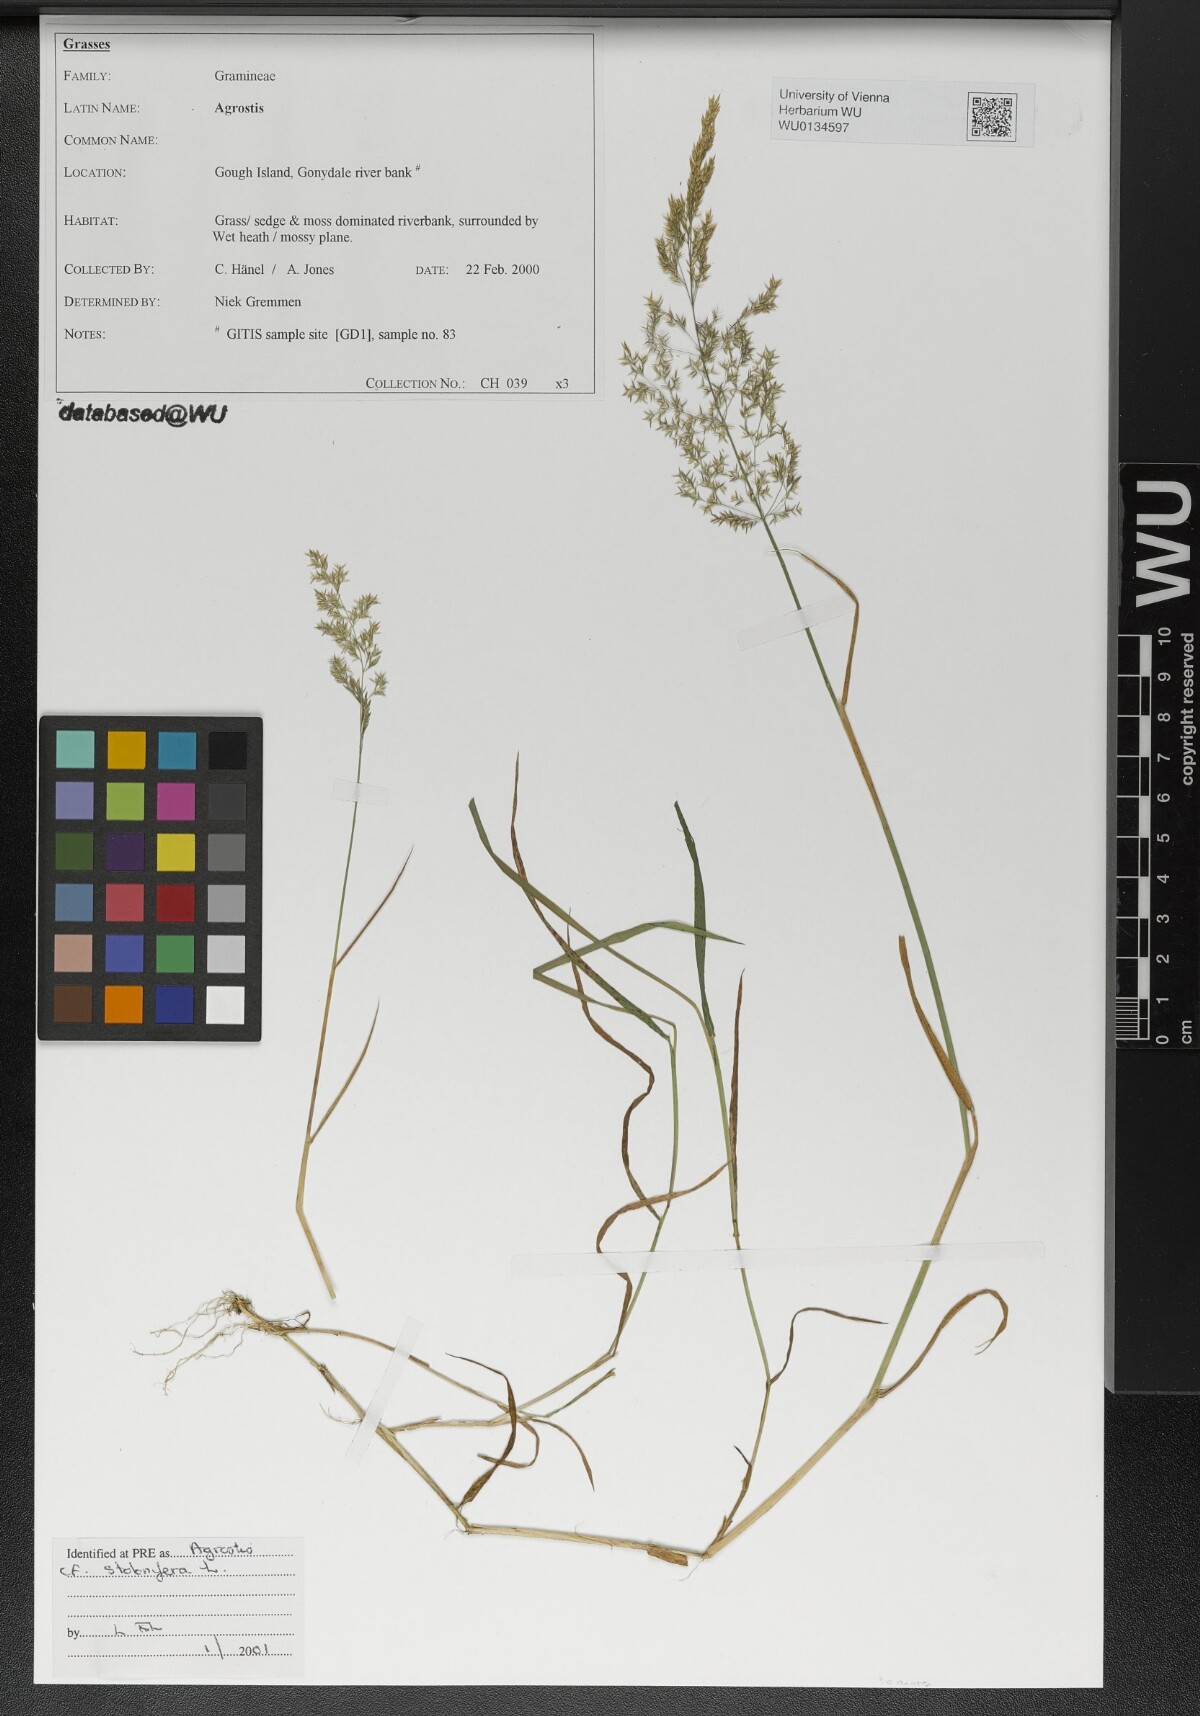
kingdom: Plantae
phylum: Tracheophyta
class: Liliopsida
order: Poales
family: Poaceae
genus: Agrostis
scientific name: Agrostis stolonifera
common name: Creeping bentgrass
